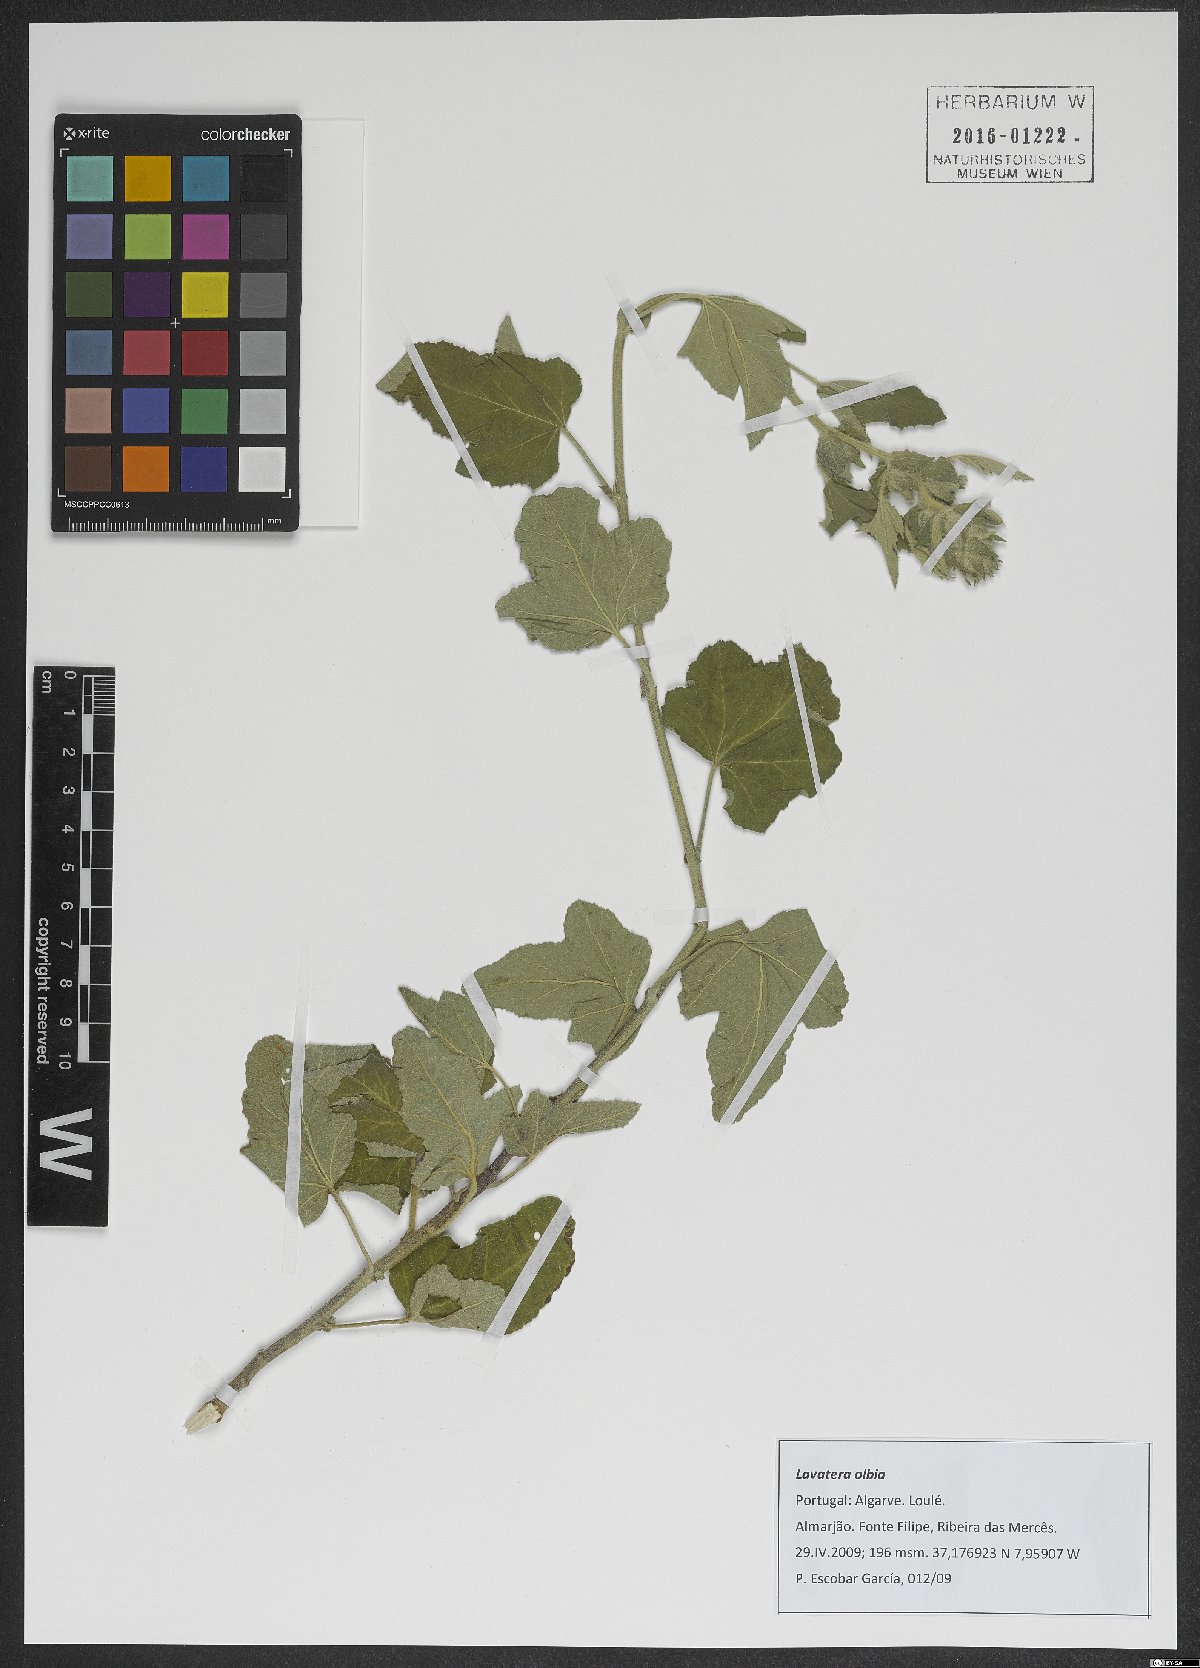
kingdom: Plantae
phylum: Tracheophyta
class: Magnoliopsida
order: Malvales
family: Malvaceae
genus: Malva
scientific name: Malva olbia
